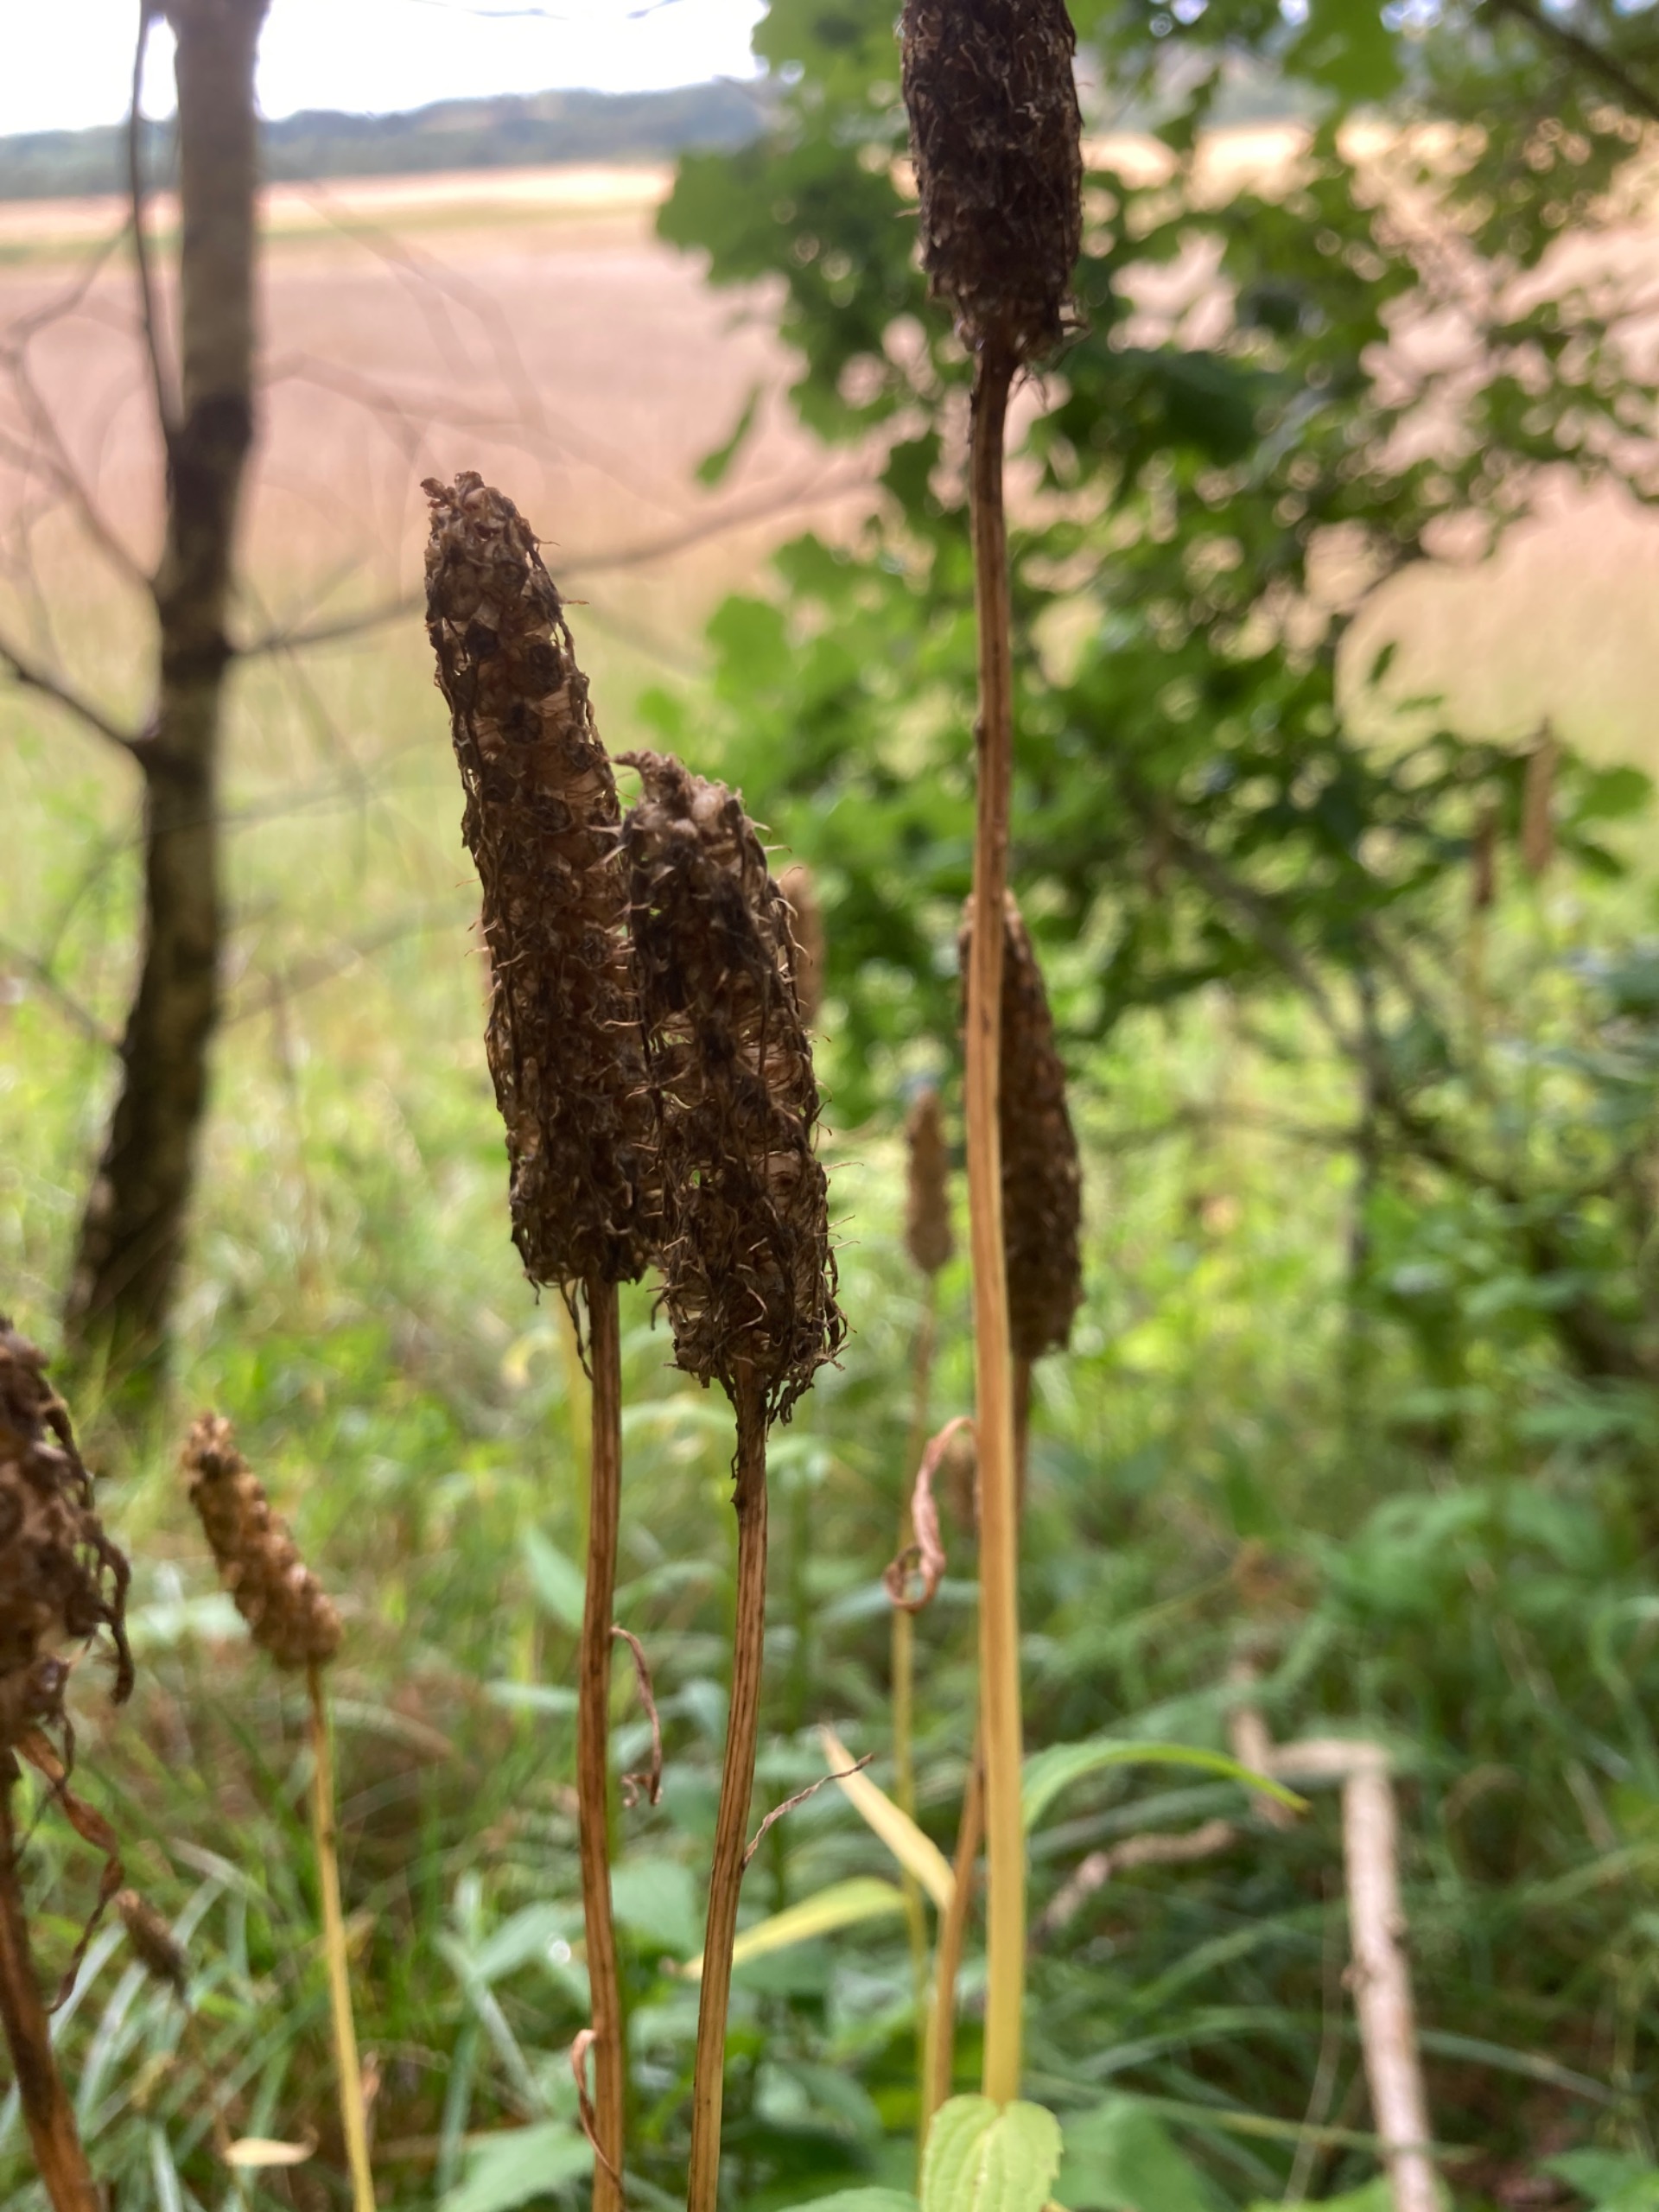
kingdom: Plantae
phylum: Tracheophyta
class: Magnoliopsida
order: Asterales
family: Campanulaceae
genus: Phyteuma
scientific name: Phyteuma spicatum
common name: Aks-rapunsel
